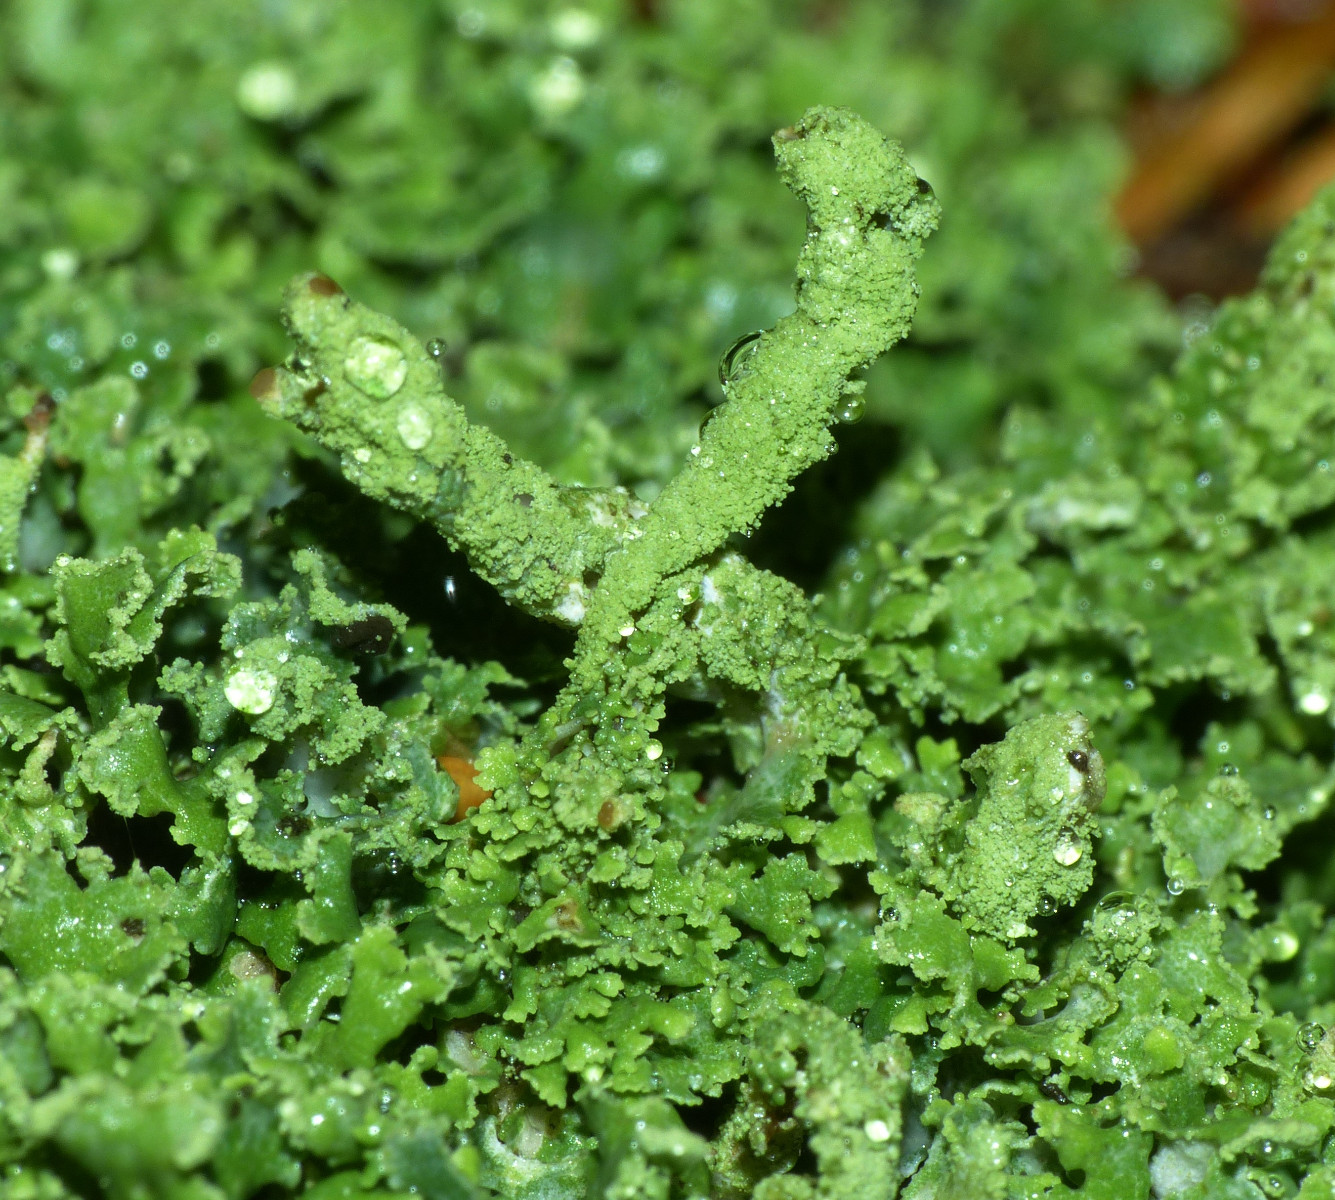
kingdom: Fungi
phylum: Ascomycota
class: Lecanoromycetes
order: Lecanorales
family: Cladoniaceae
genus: Cladonia
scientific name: Cladonia
